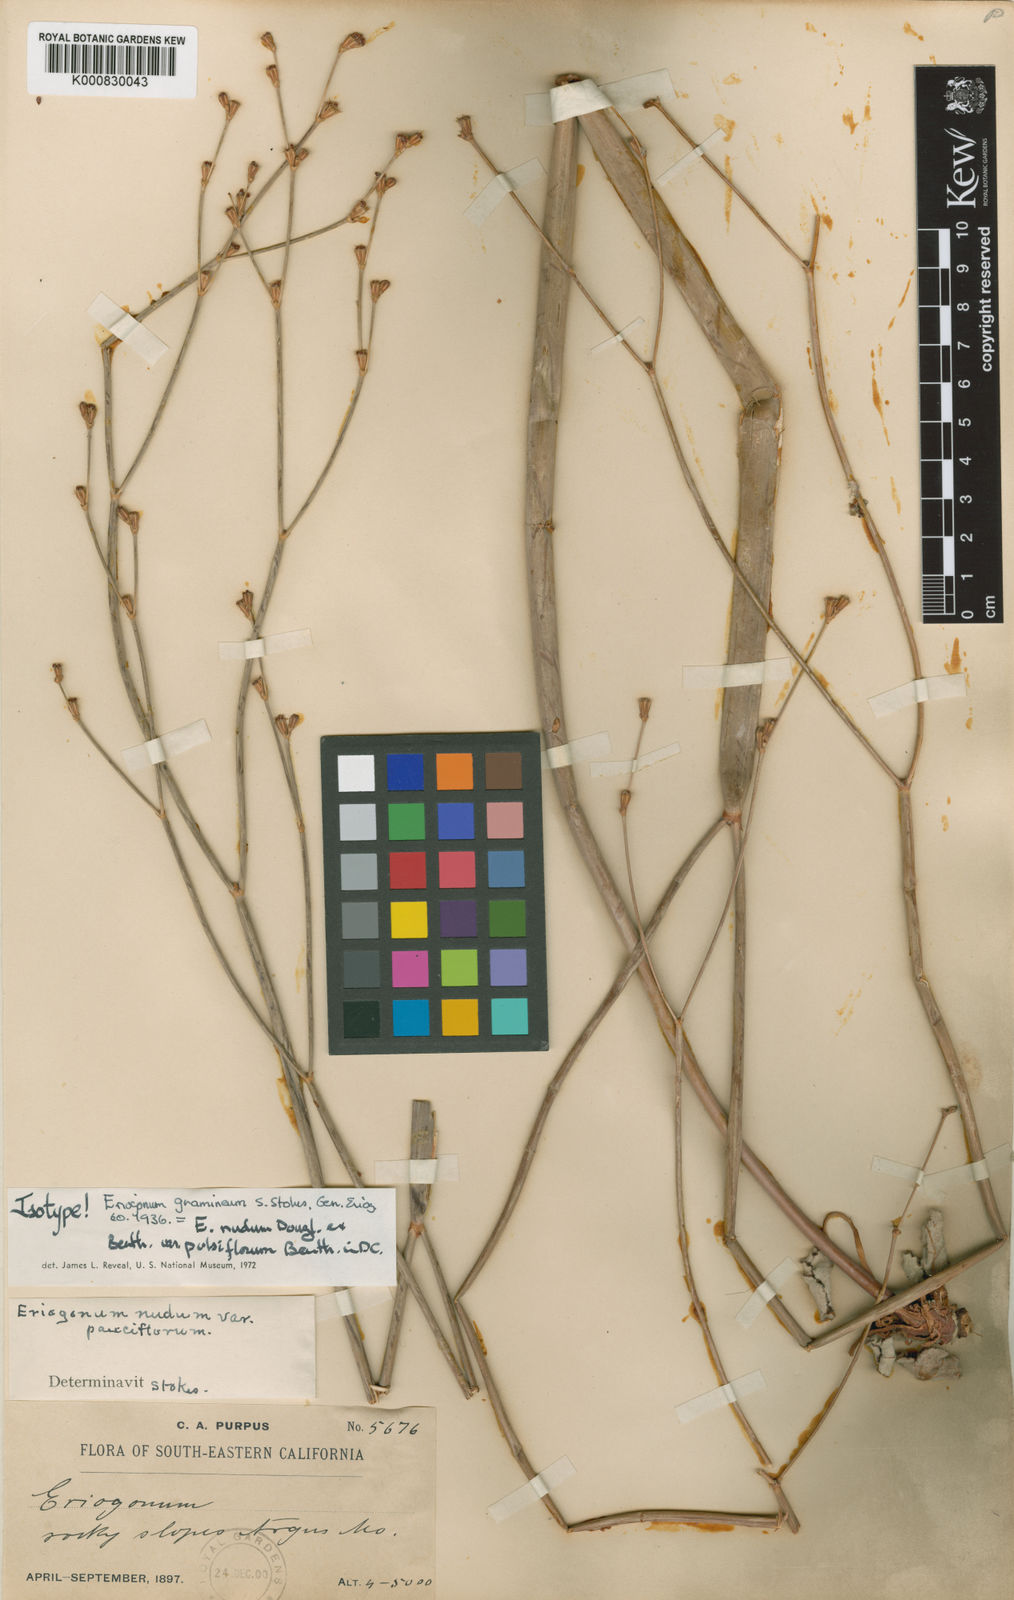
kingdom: Plantae
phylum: Tracheophyta
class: Magnoliopsida
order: Caryophyllales
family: Polygonaceae
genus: Eriogonum
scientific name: Eriogonum nudum
